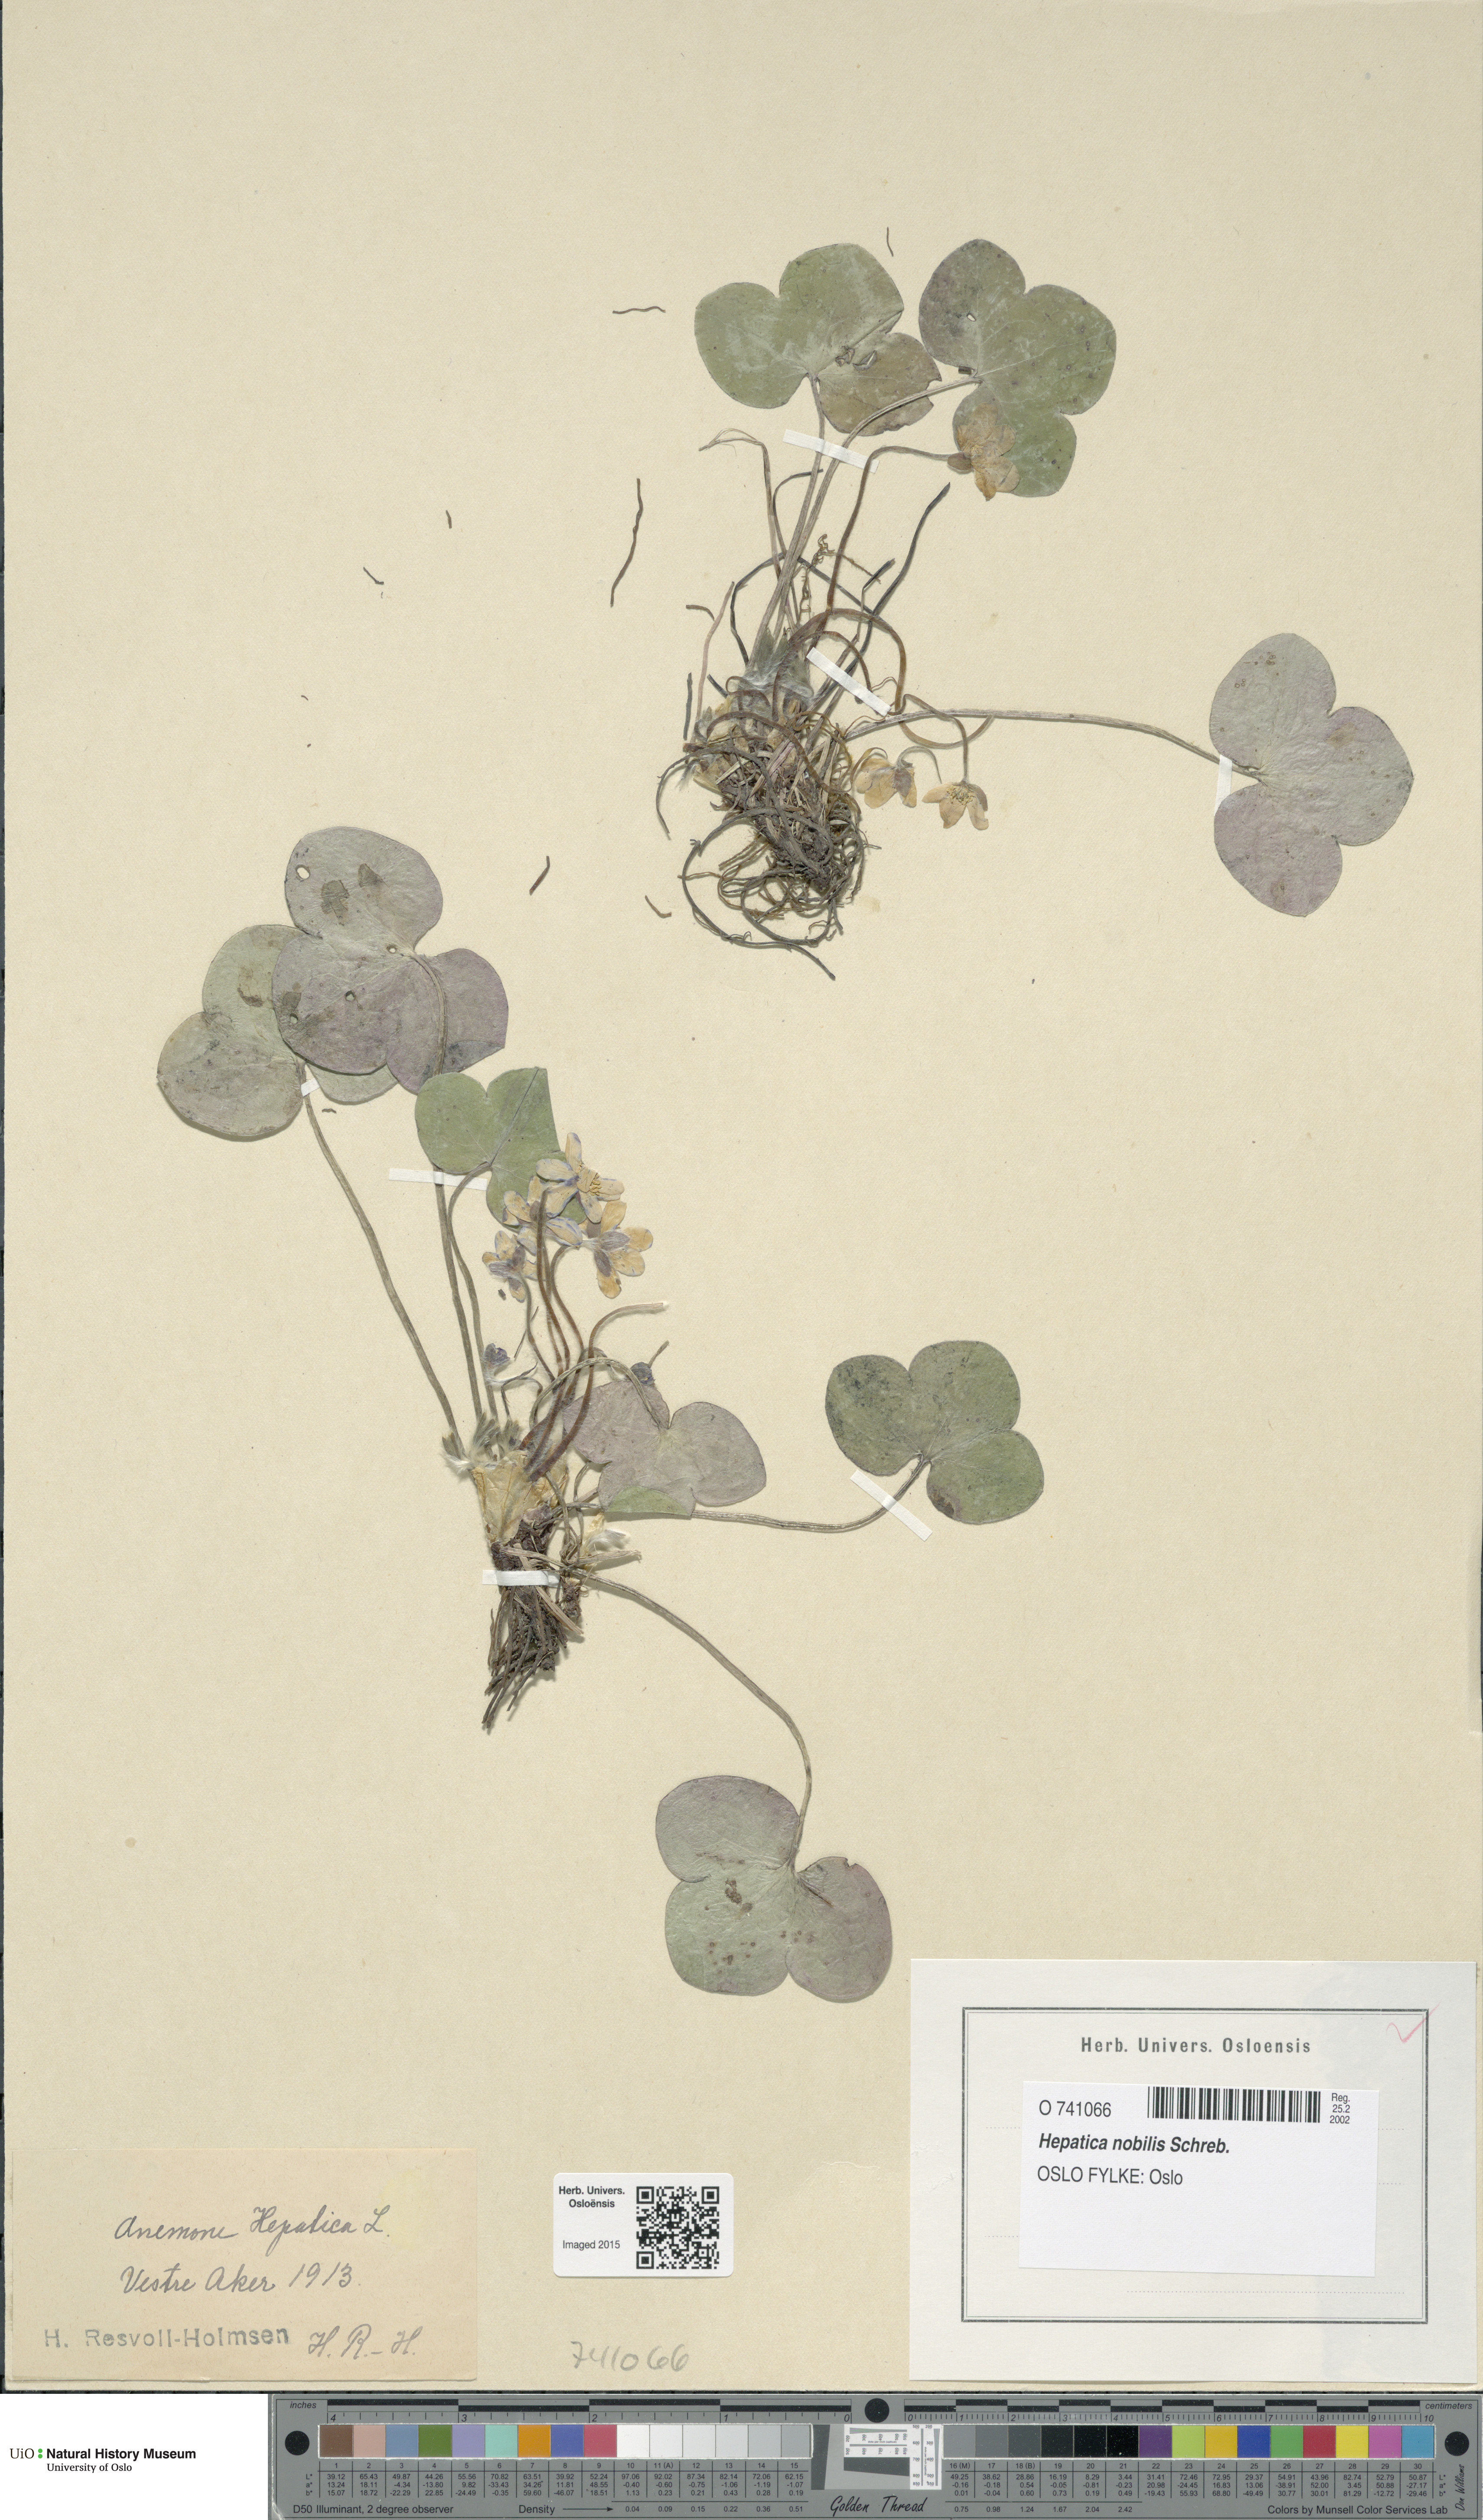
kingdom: Plantae
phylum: Tracheophyta
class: Magnoliopsida
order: Ranunculales
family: Ranunculaceae
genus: Hepatica
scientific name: Hepatica nobilis
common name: Liverleaf
